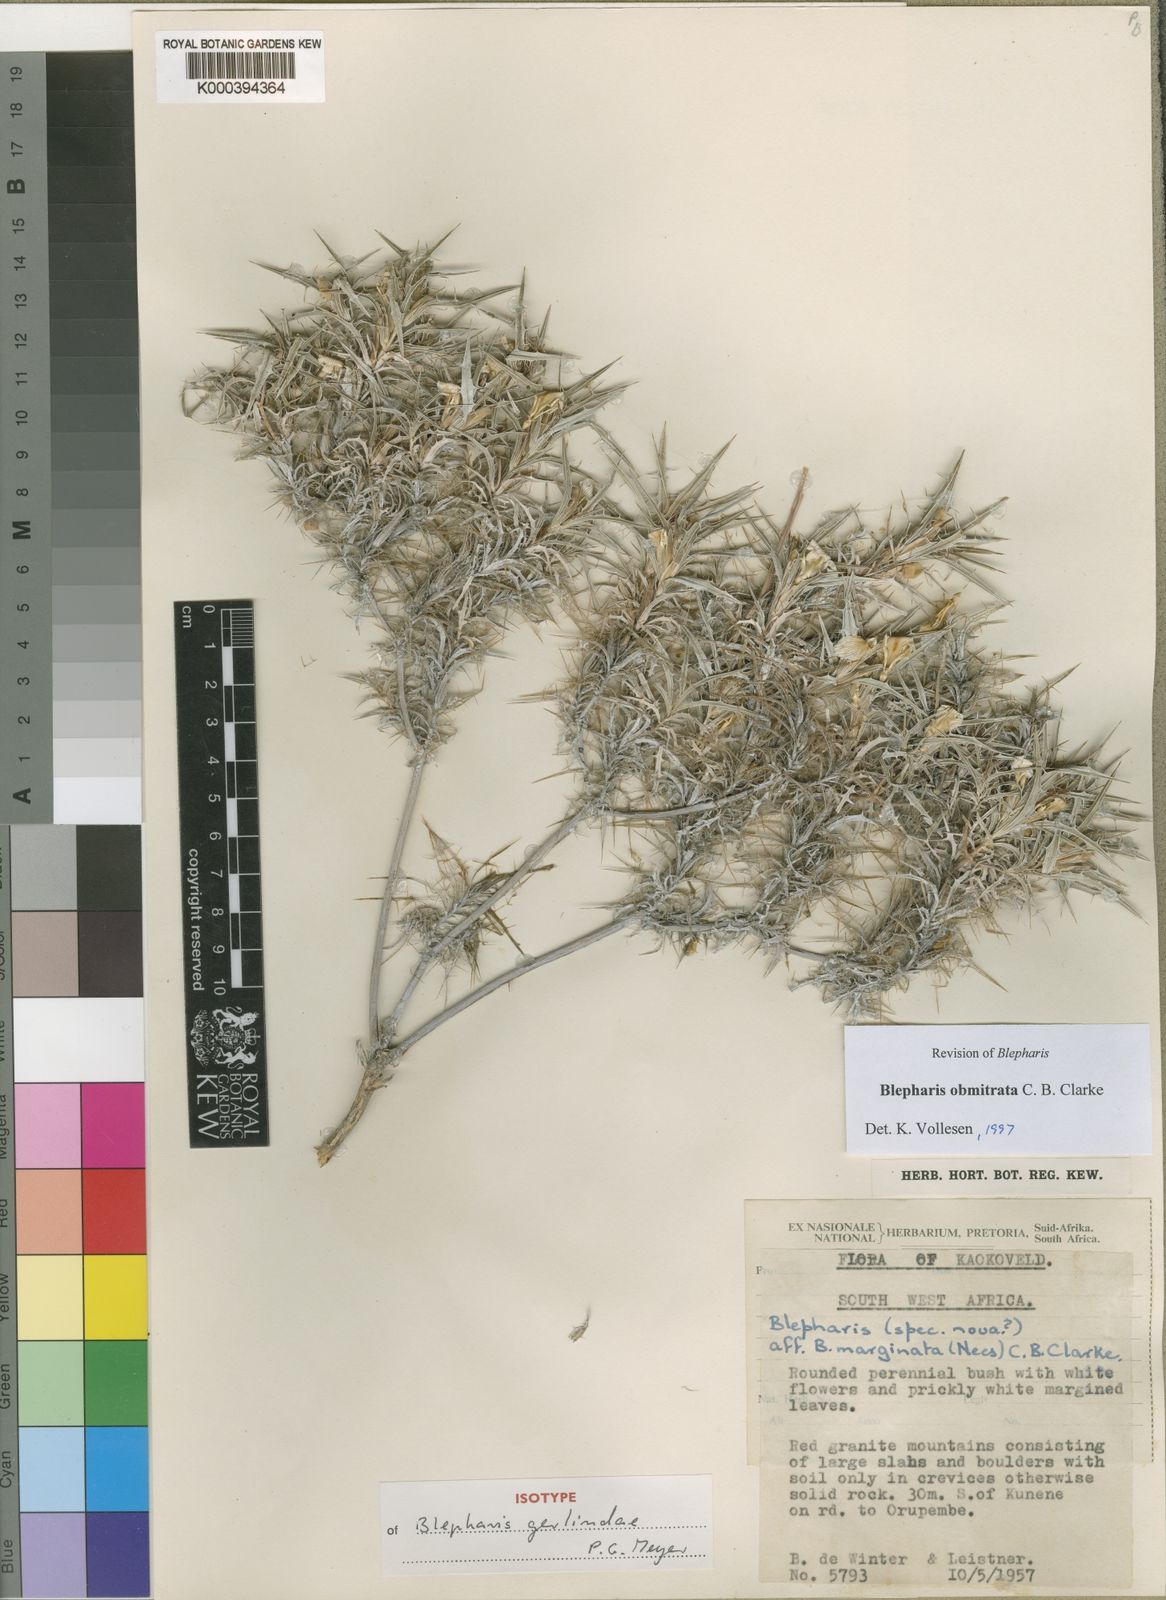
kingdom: Plantae
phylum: Tracheophyta
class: Magnoliopsida
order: Lamiales
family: Acanthaceae
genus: Blepharis
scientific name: Blepharis obmitrata
